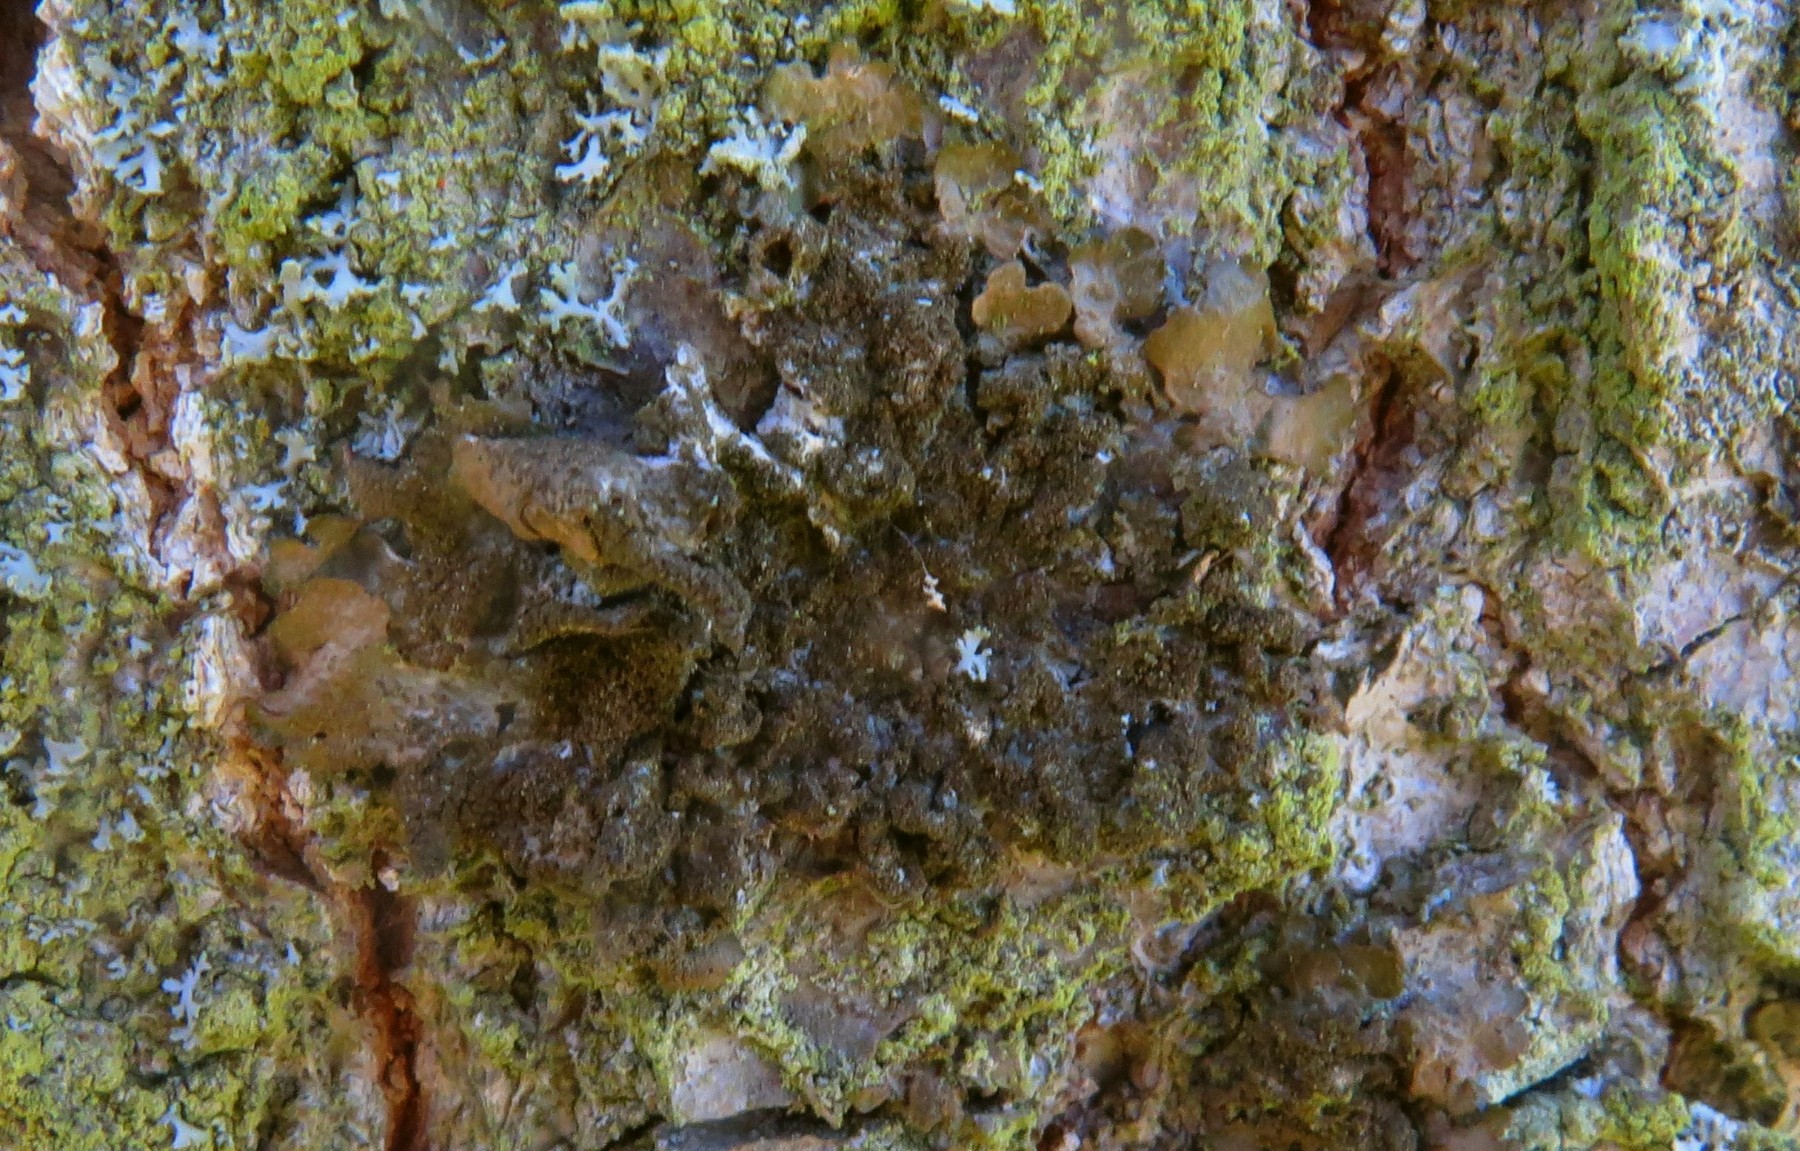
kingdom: Fungi
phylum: Ascomycota
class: Lecanoromycetes
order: Lecanorales
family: Parmeliaceae
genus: Melanelixia
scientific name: Melanelixia subaurifera
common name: guldpudret skållav
